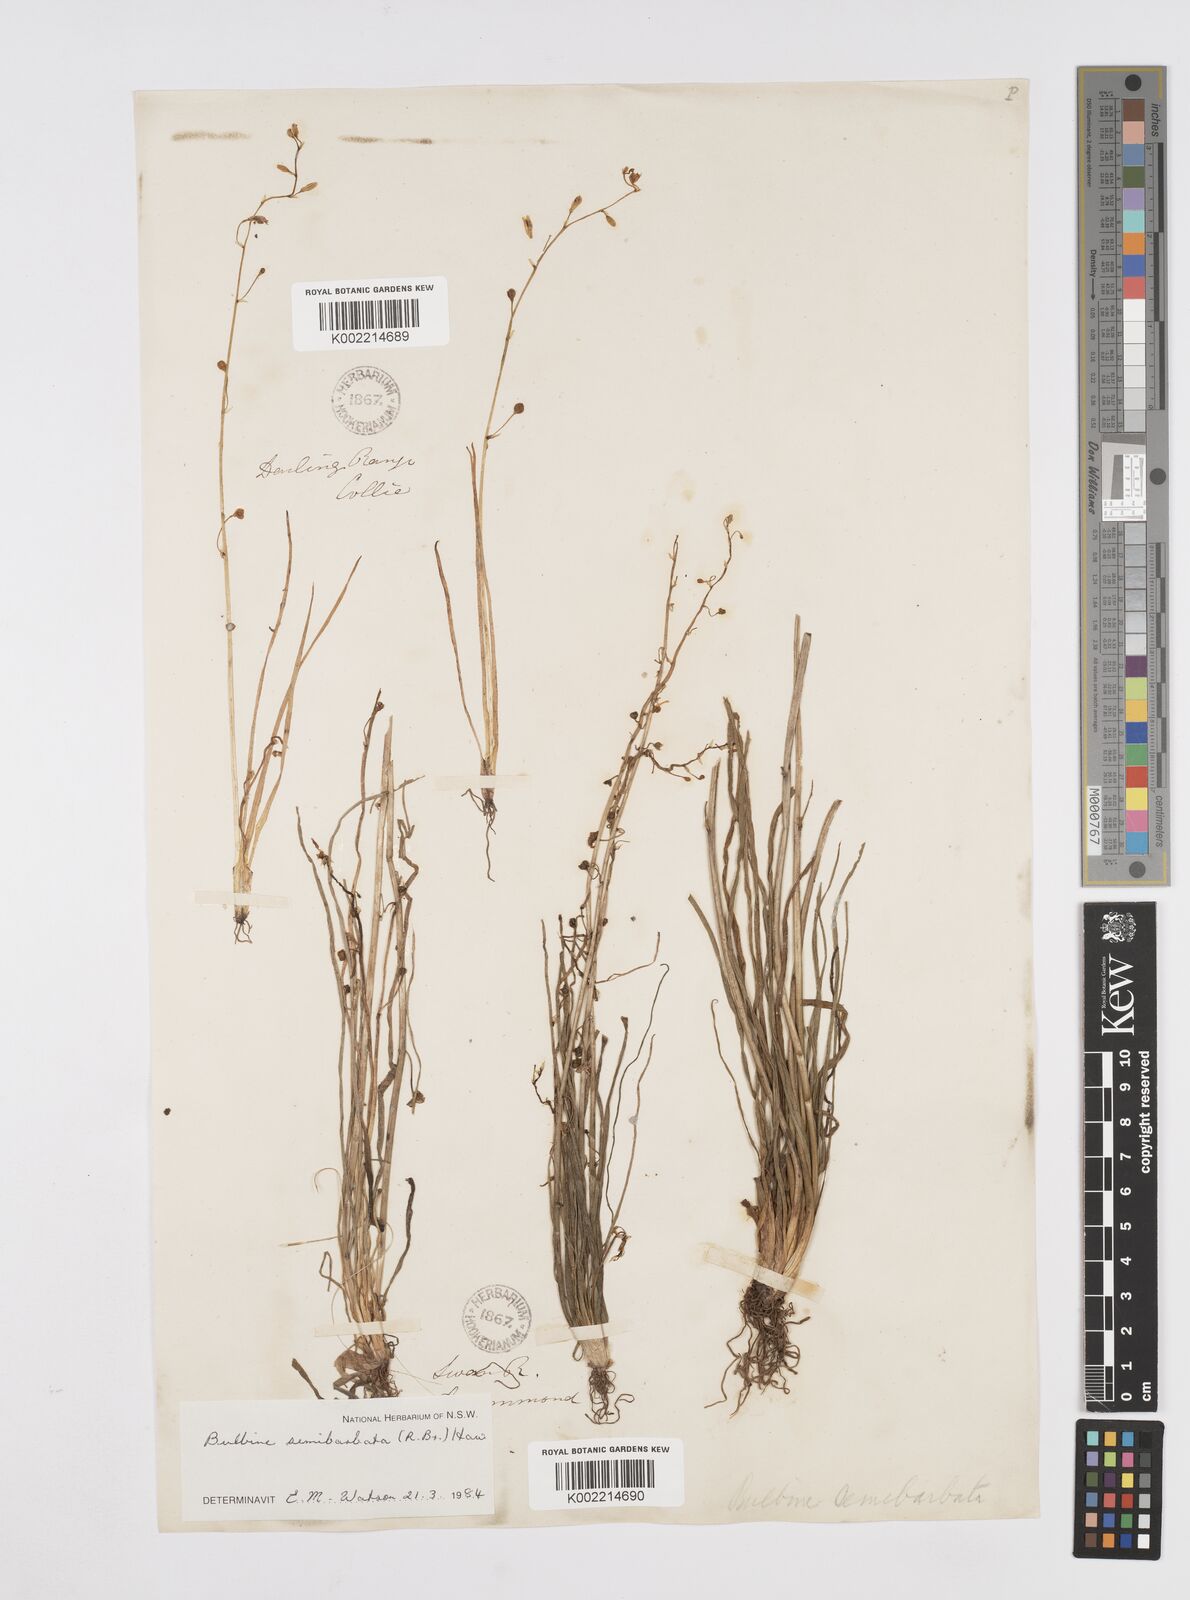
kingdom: Plantae
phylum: Tracheophyta
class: Liliopsida
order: Asparagales
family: Asphodelaceae
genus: Bulbine
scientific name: Bulbine semibarbata
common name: Leek lily
